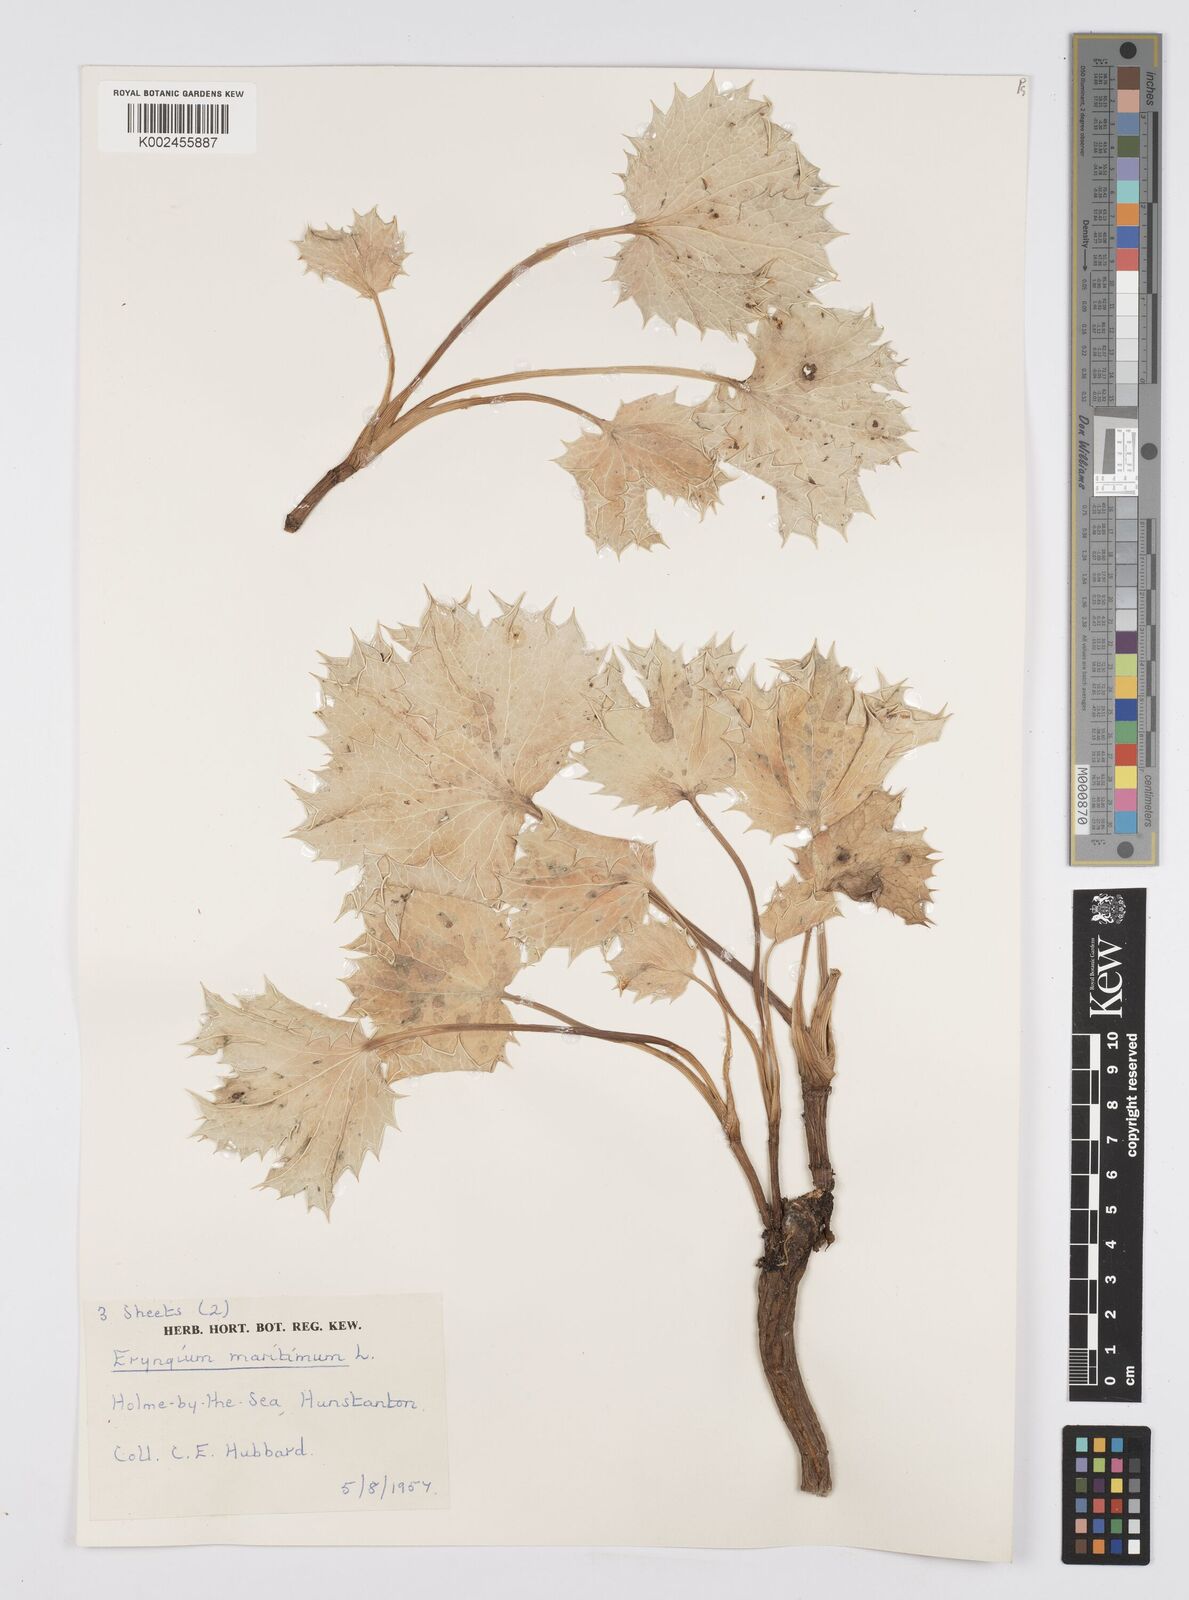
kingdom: Plantae
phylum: Tracheophyta
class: Magnoliopsida
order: Apiales
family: Apiaceae
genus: Eryngium
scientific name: Eryngium maritimum
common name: Sea-holly
